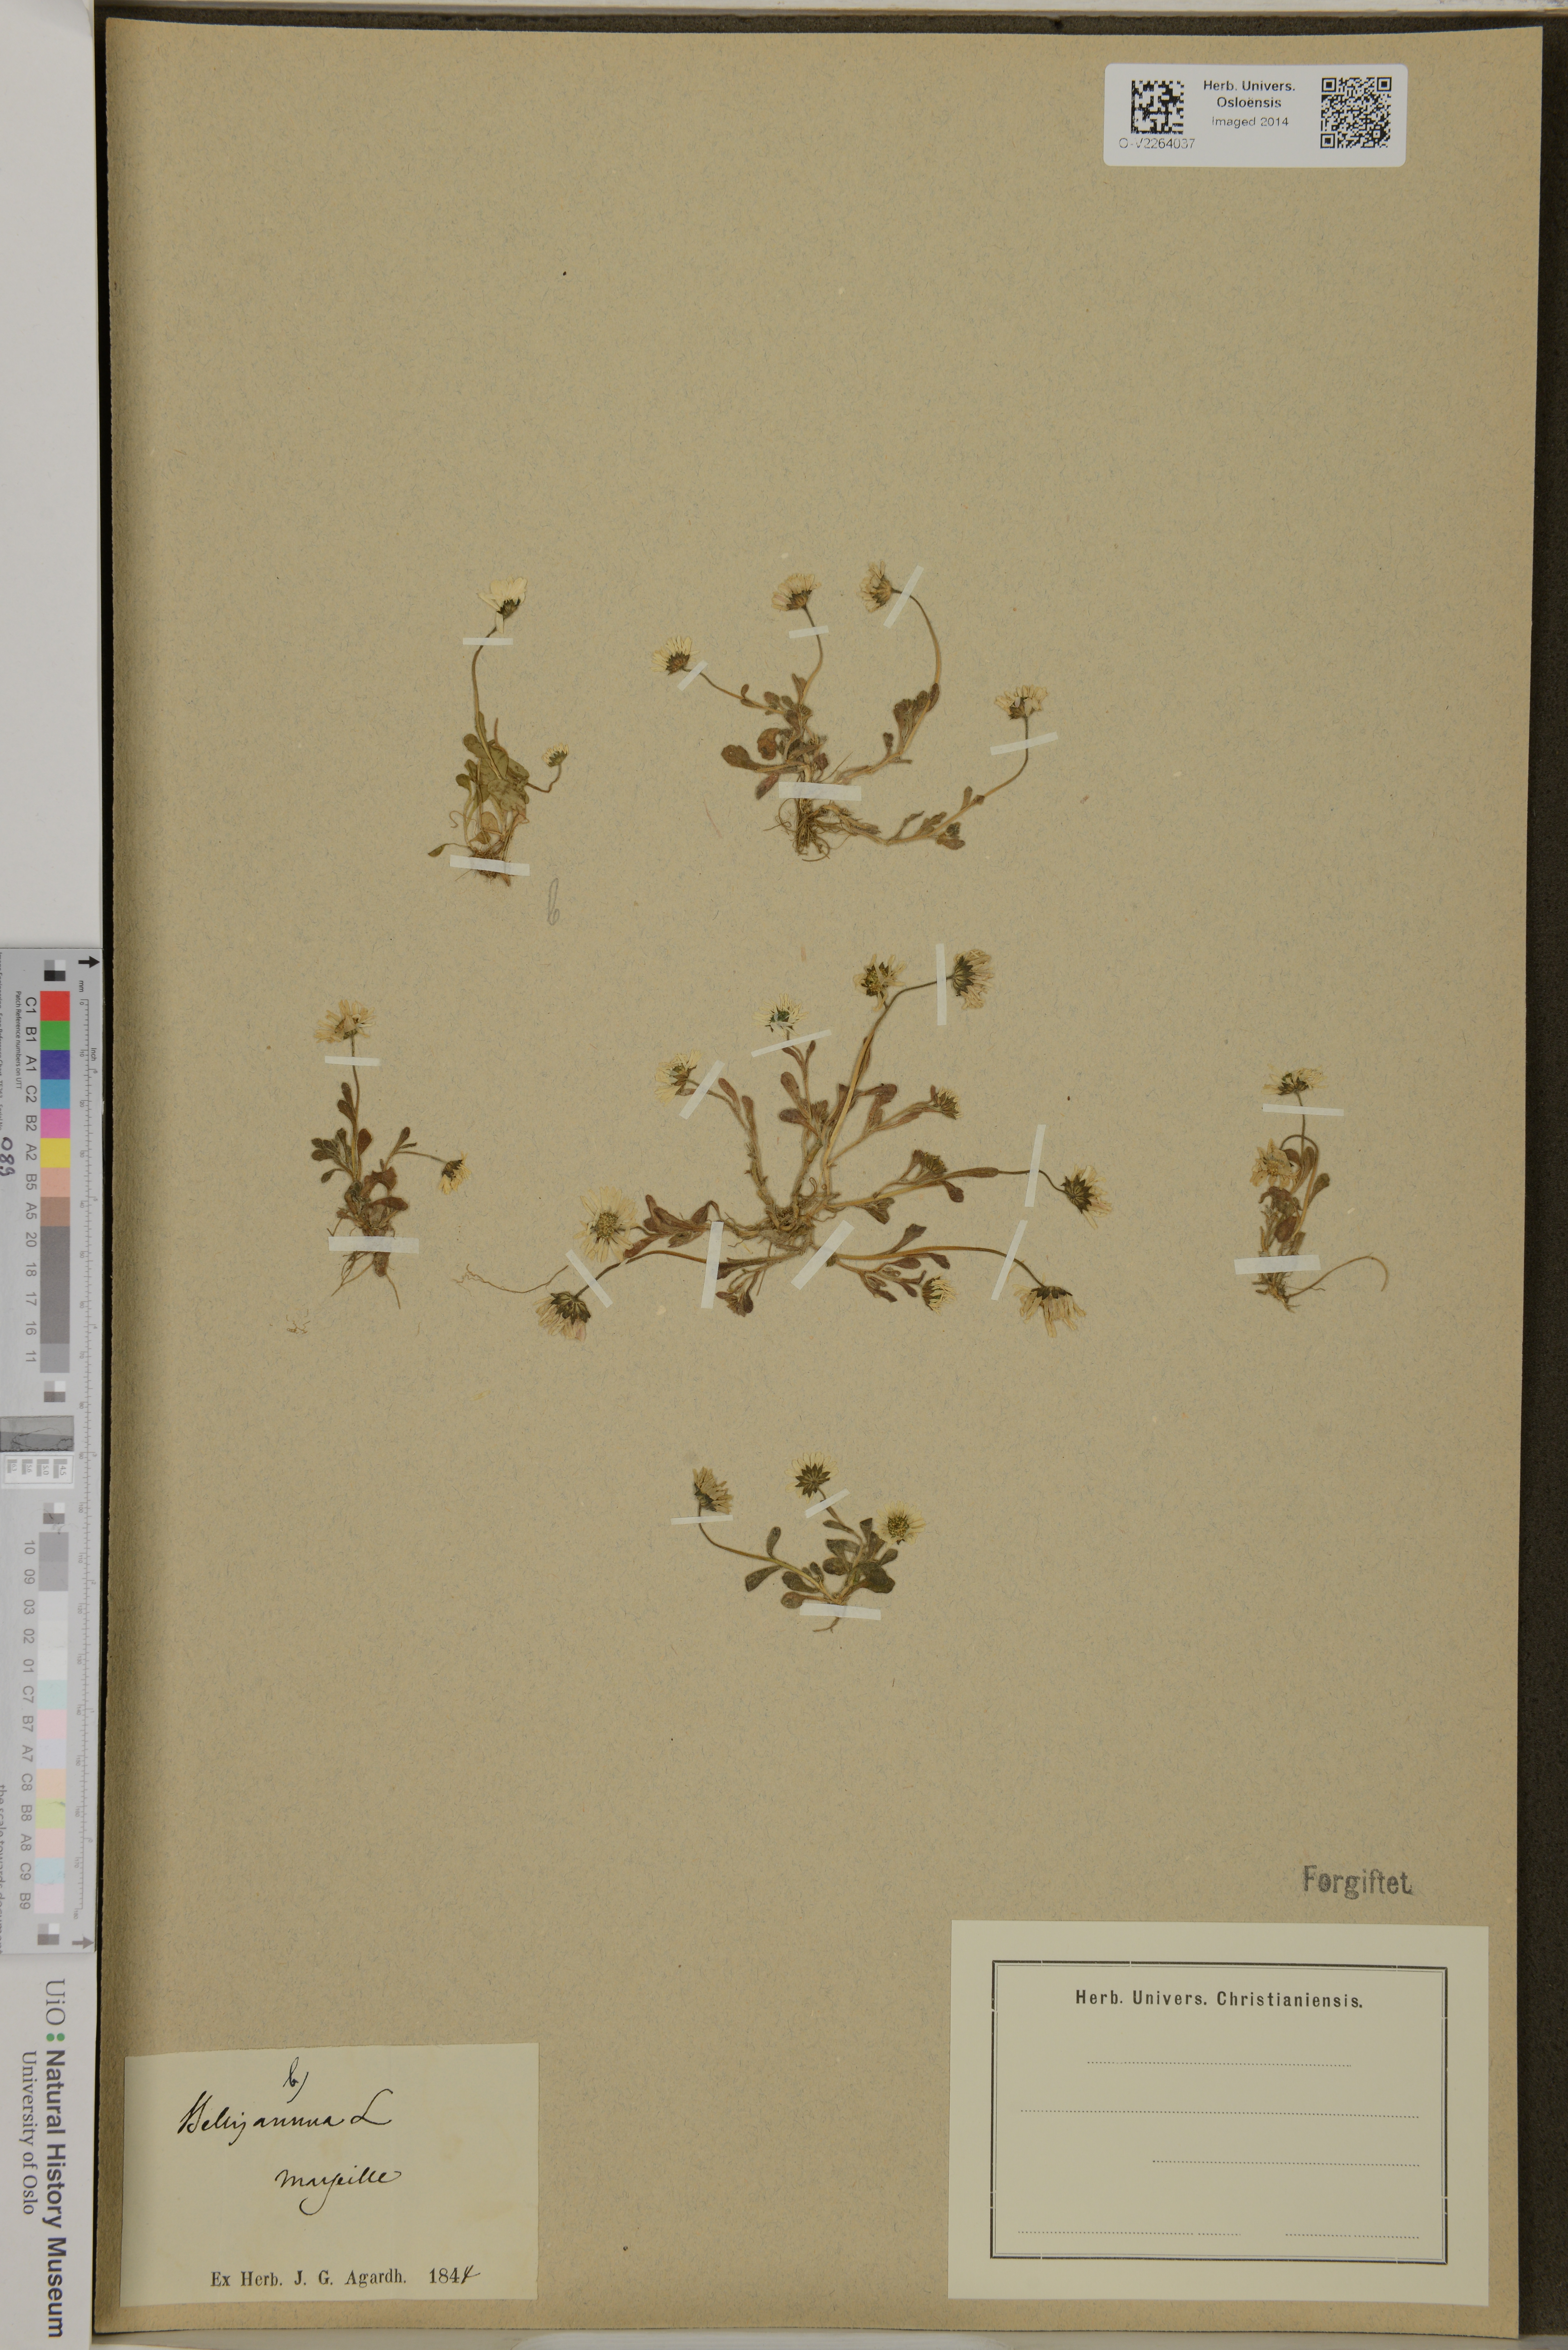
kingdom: Plantae
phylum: Tracheophyta
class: Magnoliopsida
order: Asterales
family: Asteraceae
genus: Bellis
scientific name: Bellis annua
